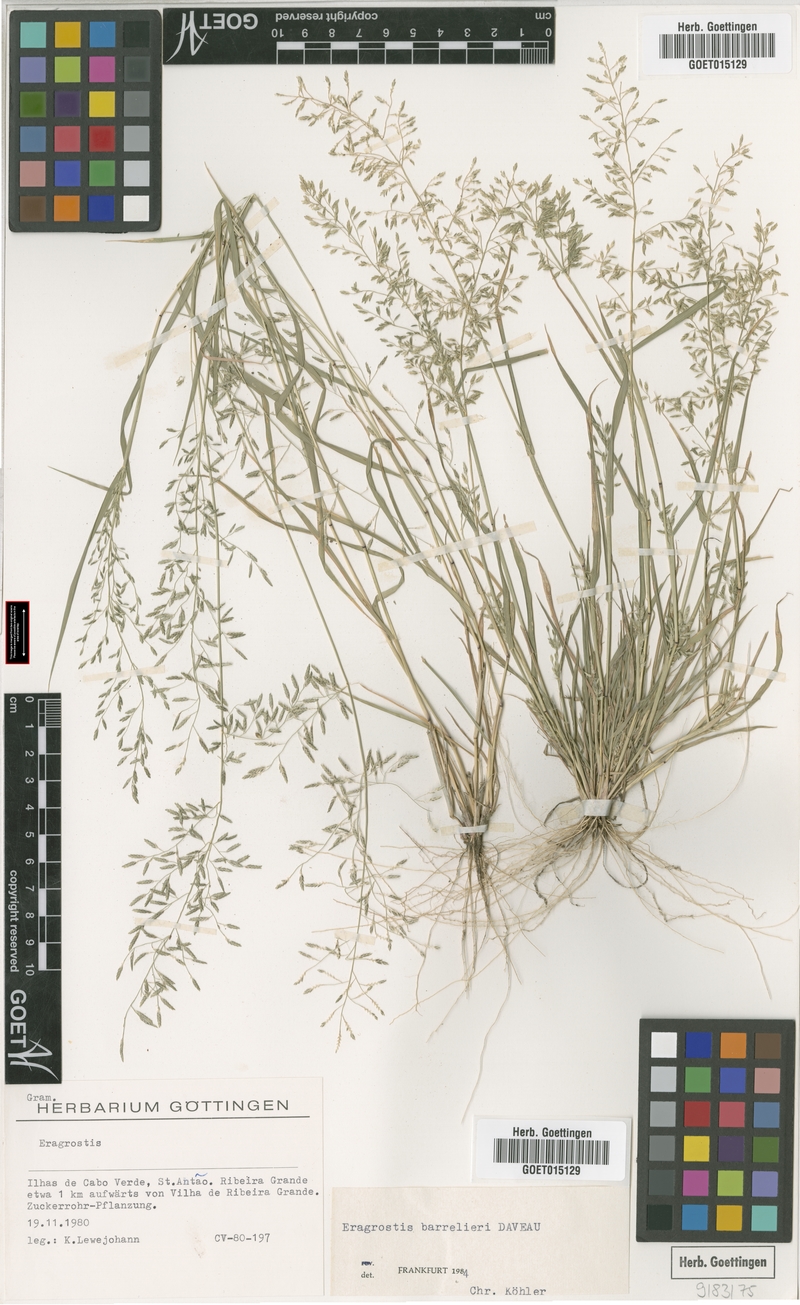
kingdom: Plantae
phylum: Tracheophyta
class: Liliopsida
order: Poales
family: Poaceae
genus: Eragrostis
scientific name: Eragrostis barrelieri
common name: Mediterranean lovegrass
